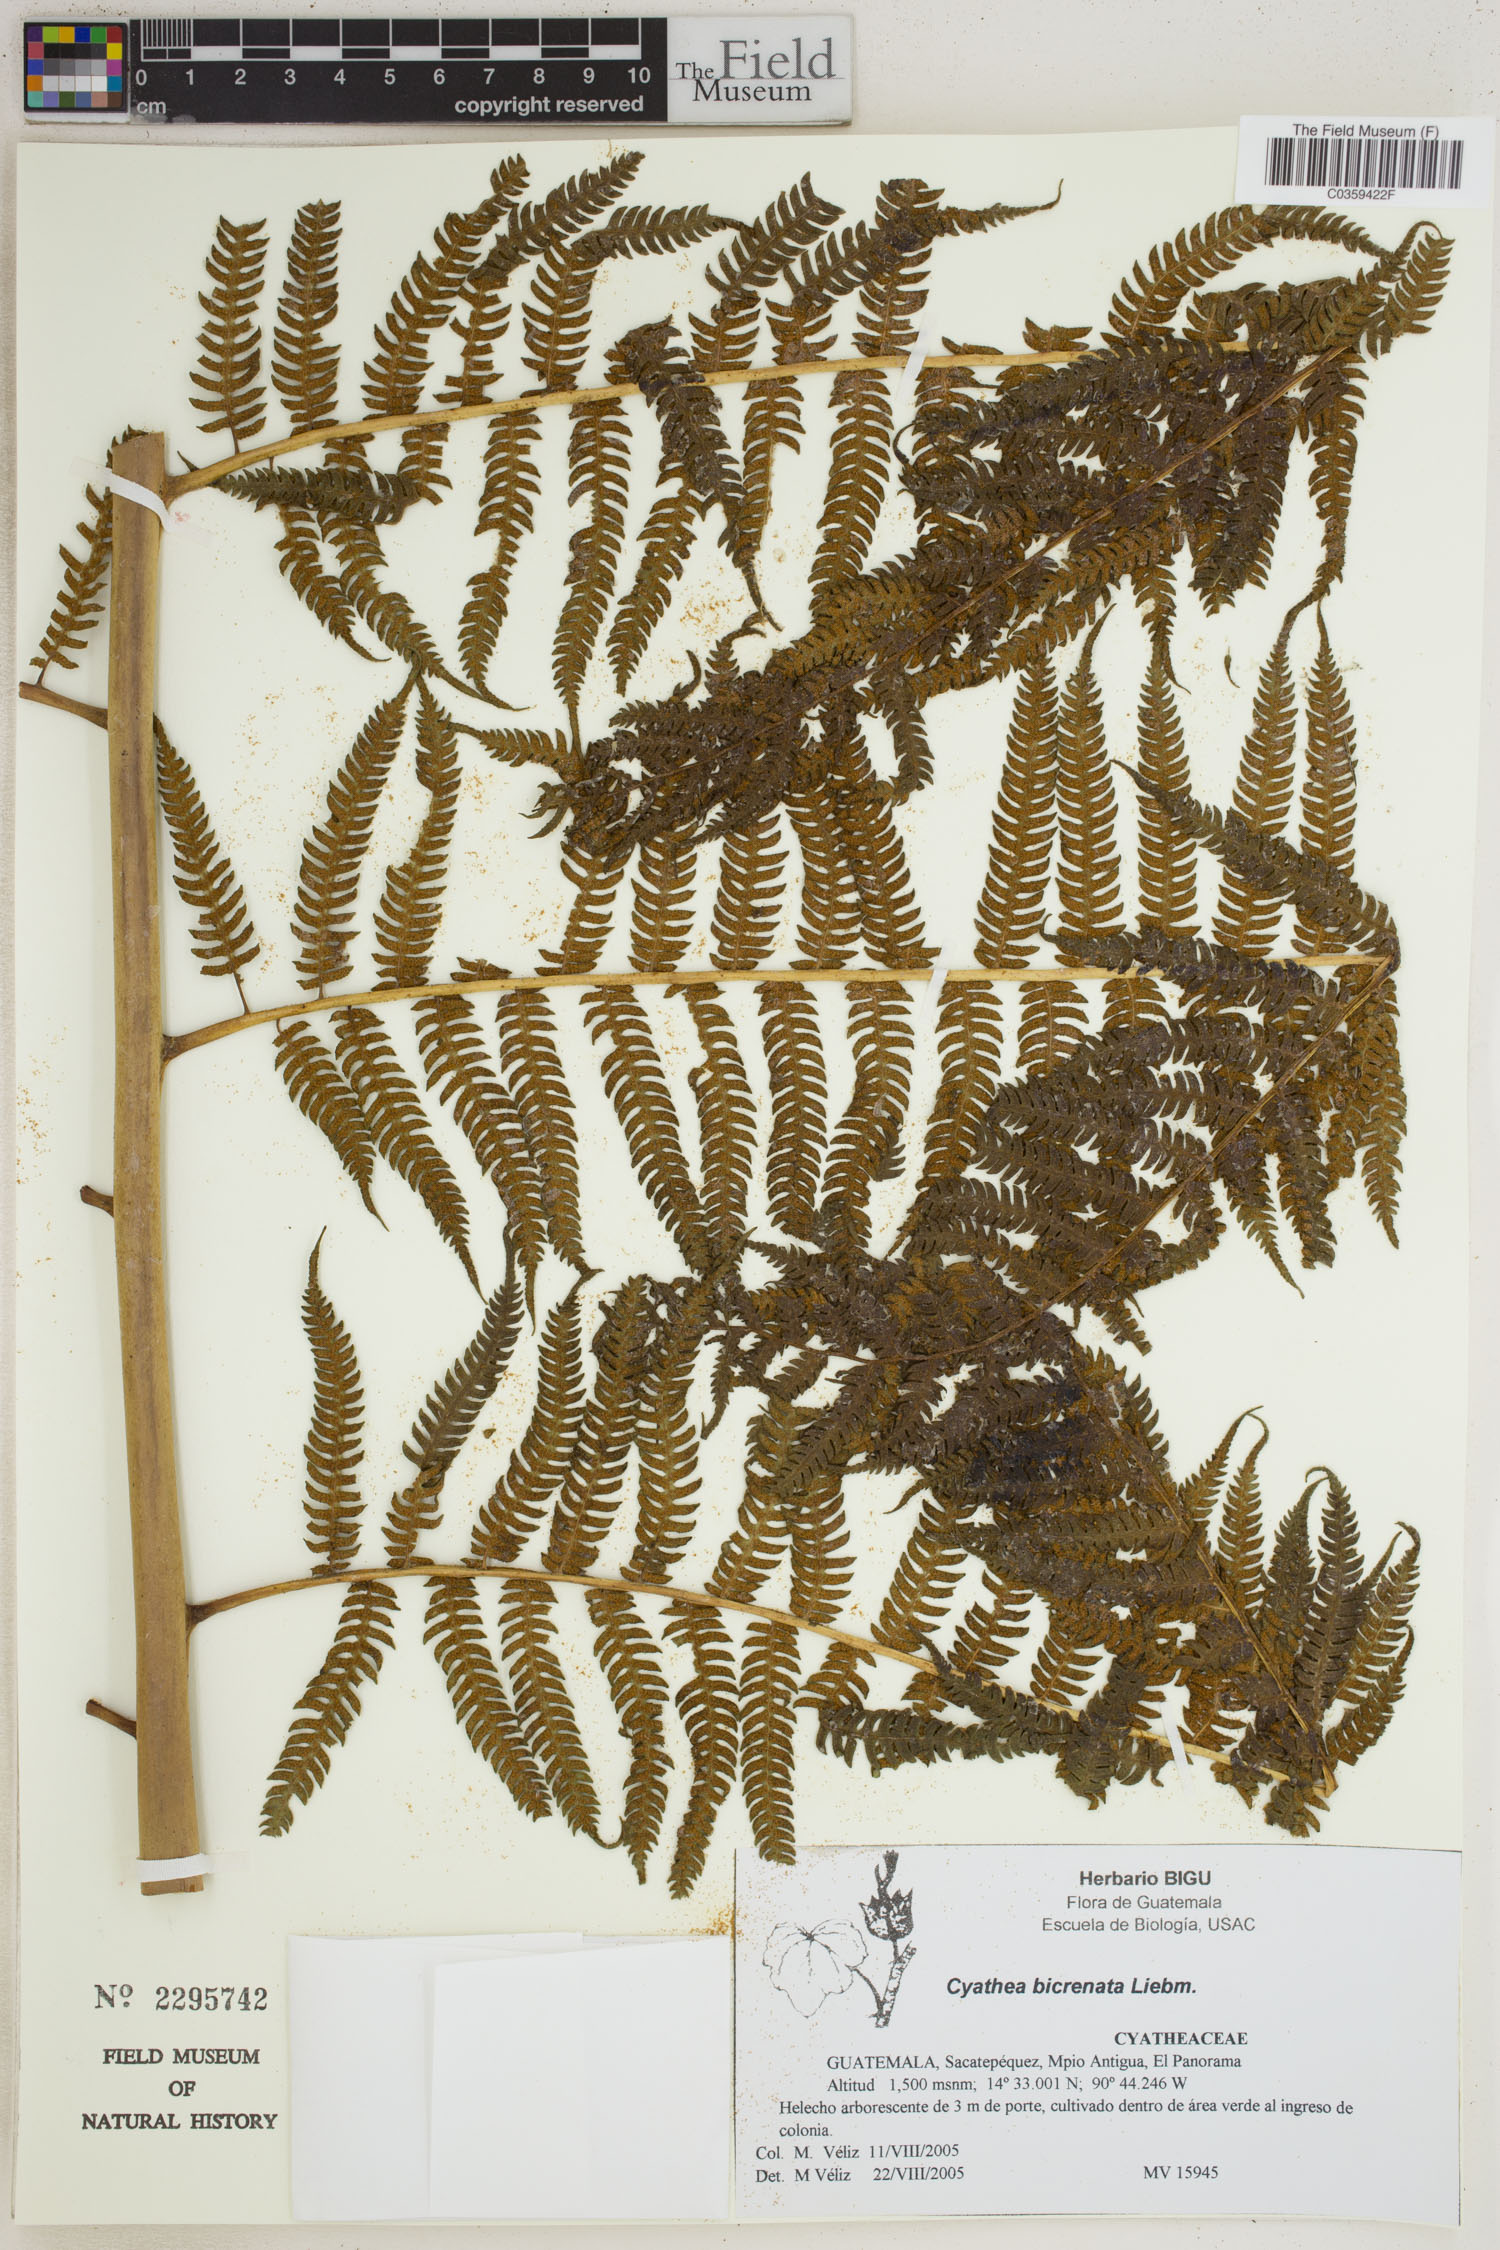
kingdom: Plantae
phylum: Tracheophyta
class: Polypodiopsida
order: Cyatheales
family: Cyatheaceae
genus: Cyathea
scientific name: Cyathea bicrenata
